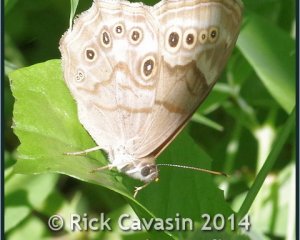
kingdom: Animalia
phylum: Arthropoda
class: Insecta
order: Lepidoptera
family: Nymphalidae
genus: Lethe
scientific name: Lethe anthedon
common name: Northern Pearly-Eye
